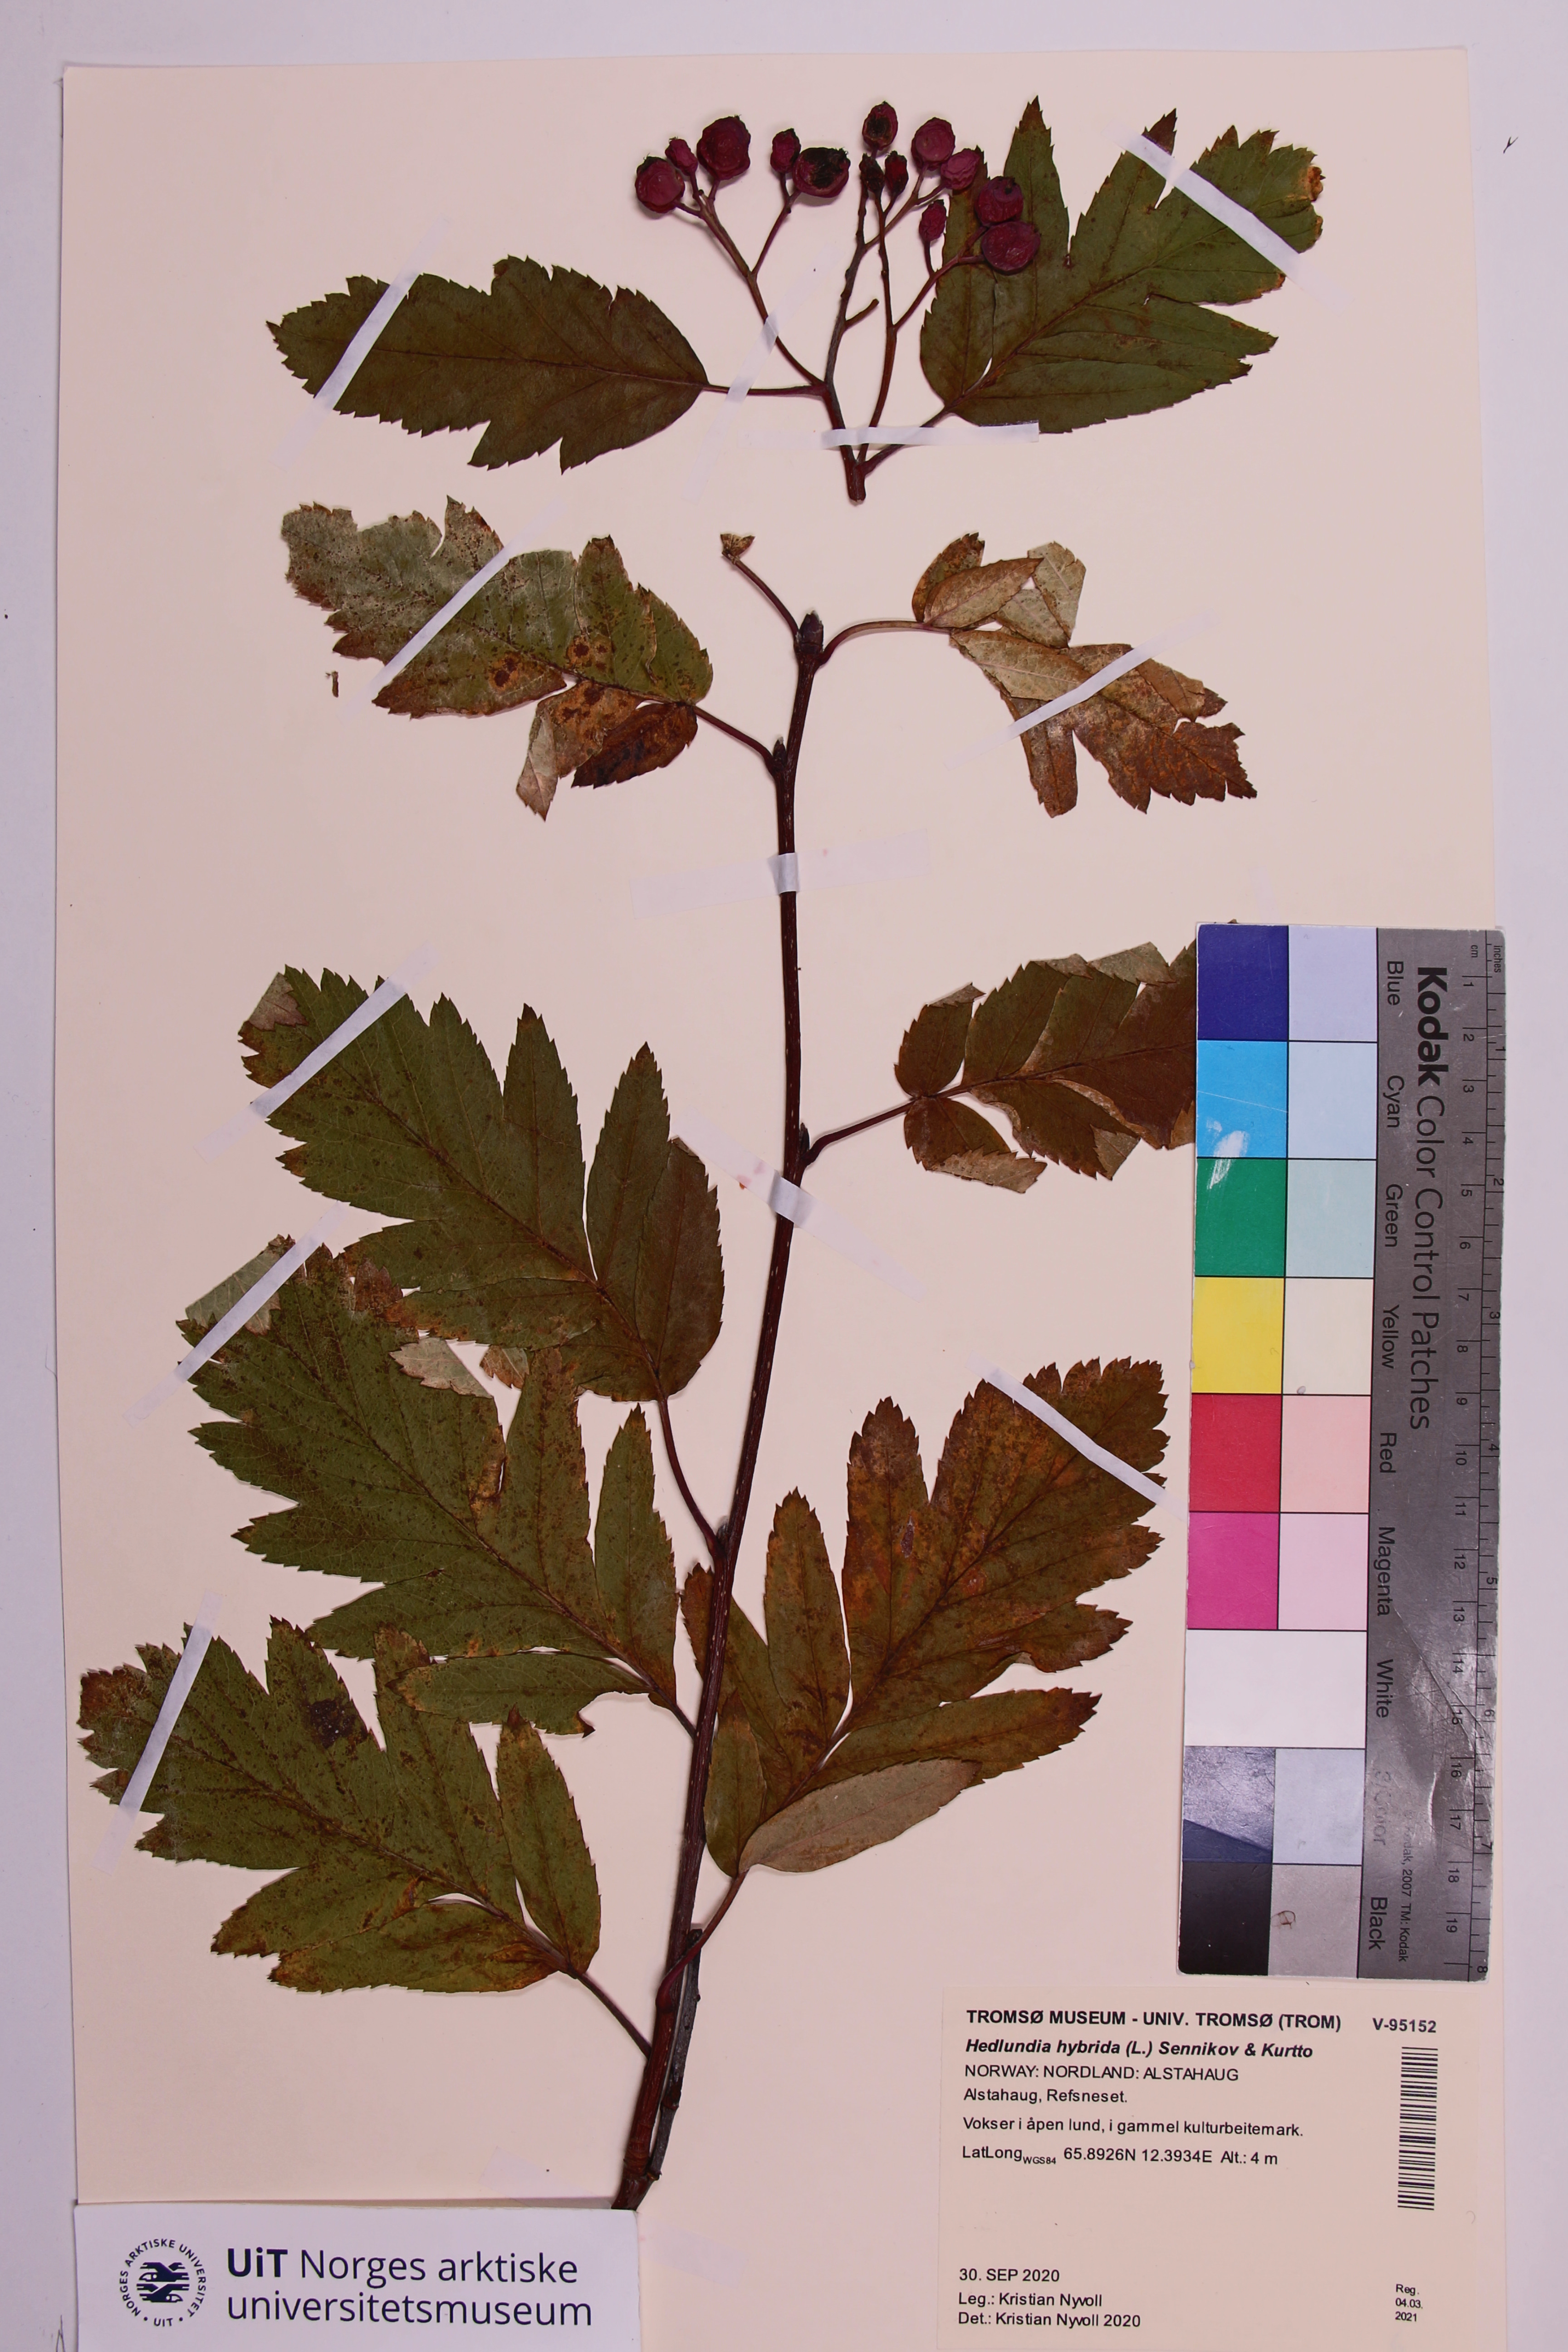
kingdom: Plantae
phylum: Tracheophyta
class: Magnoliopsida
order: Rosales
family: Rosaceae
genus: Hedlundia
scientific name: Hedlundia hybrida
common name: Swedish service-tree
